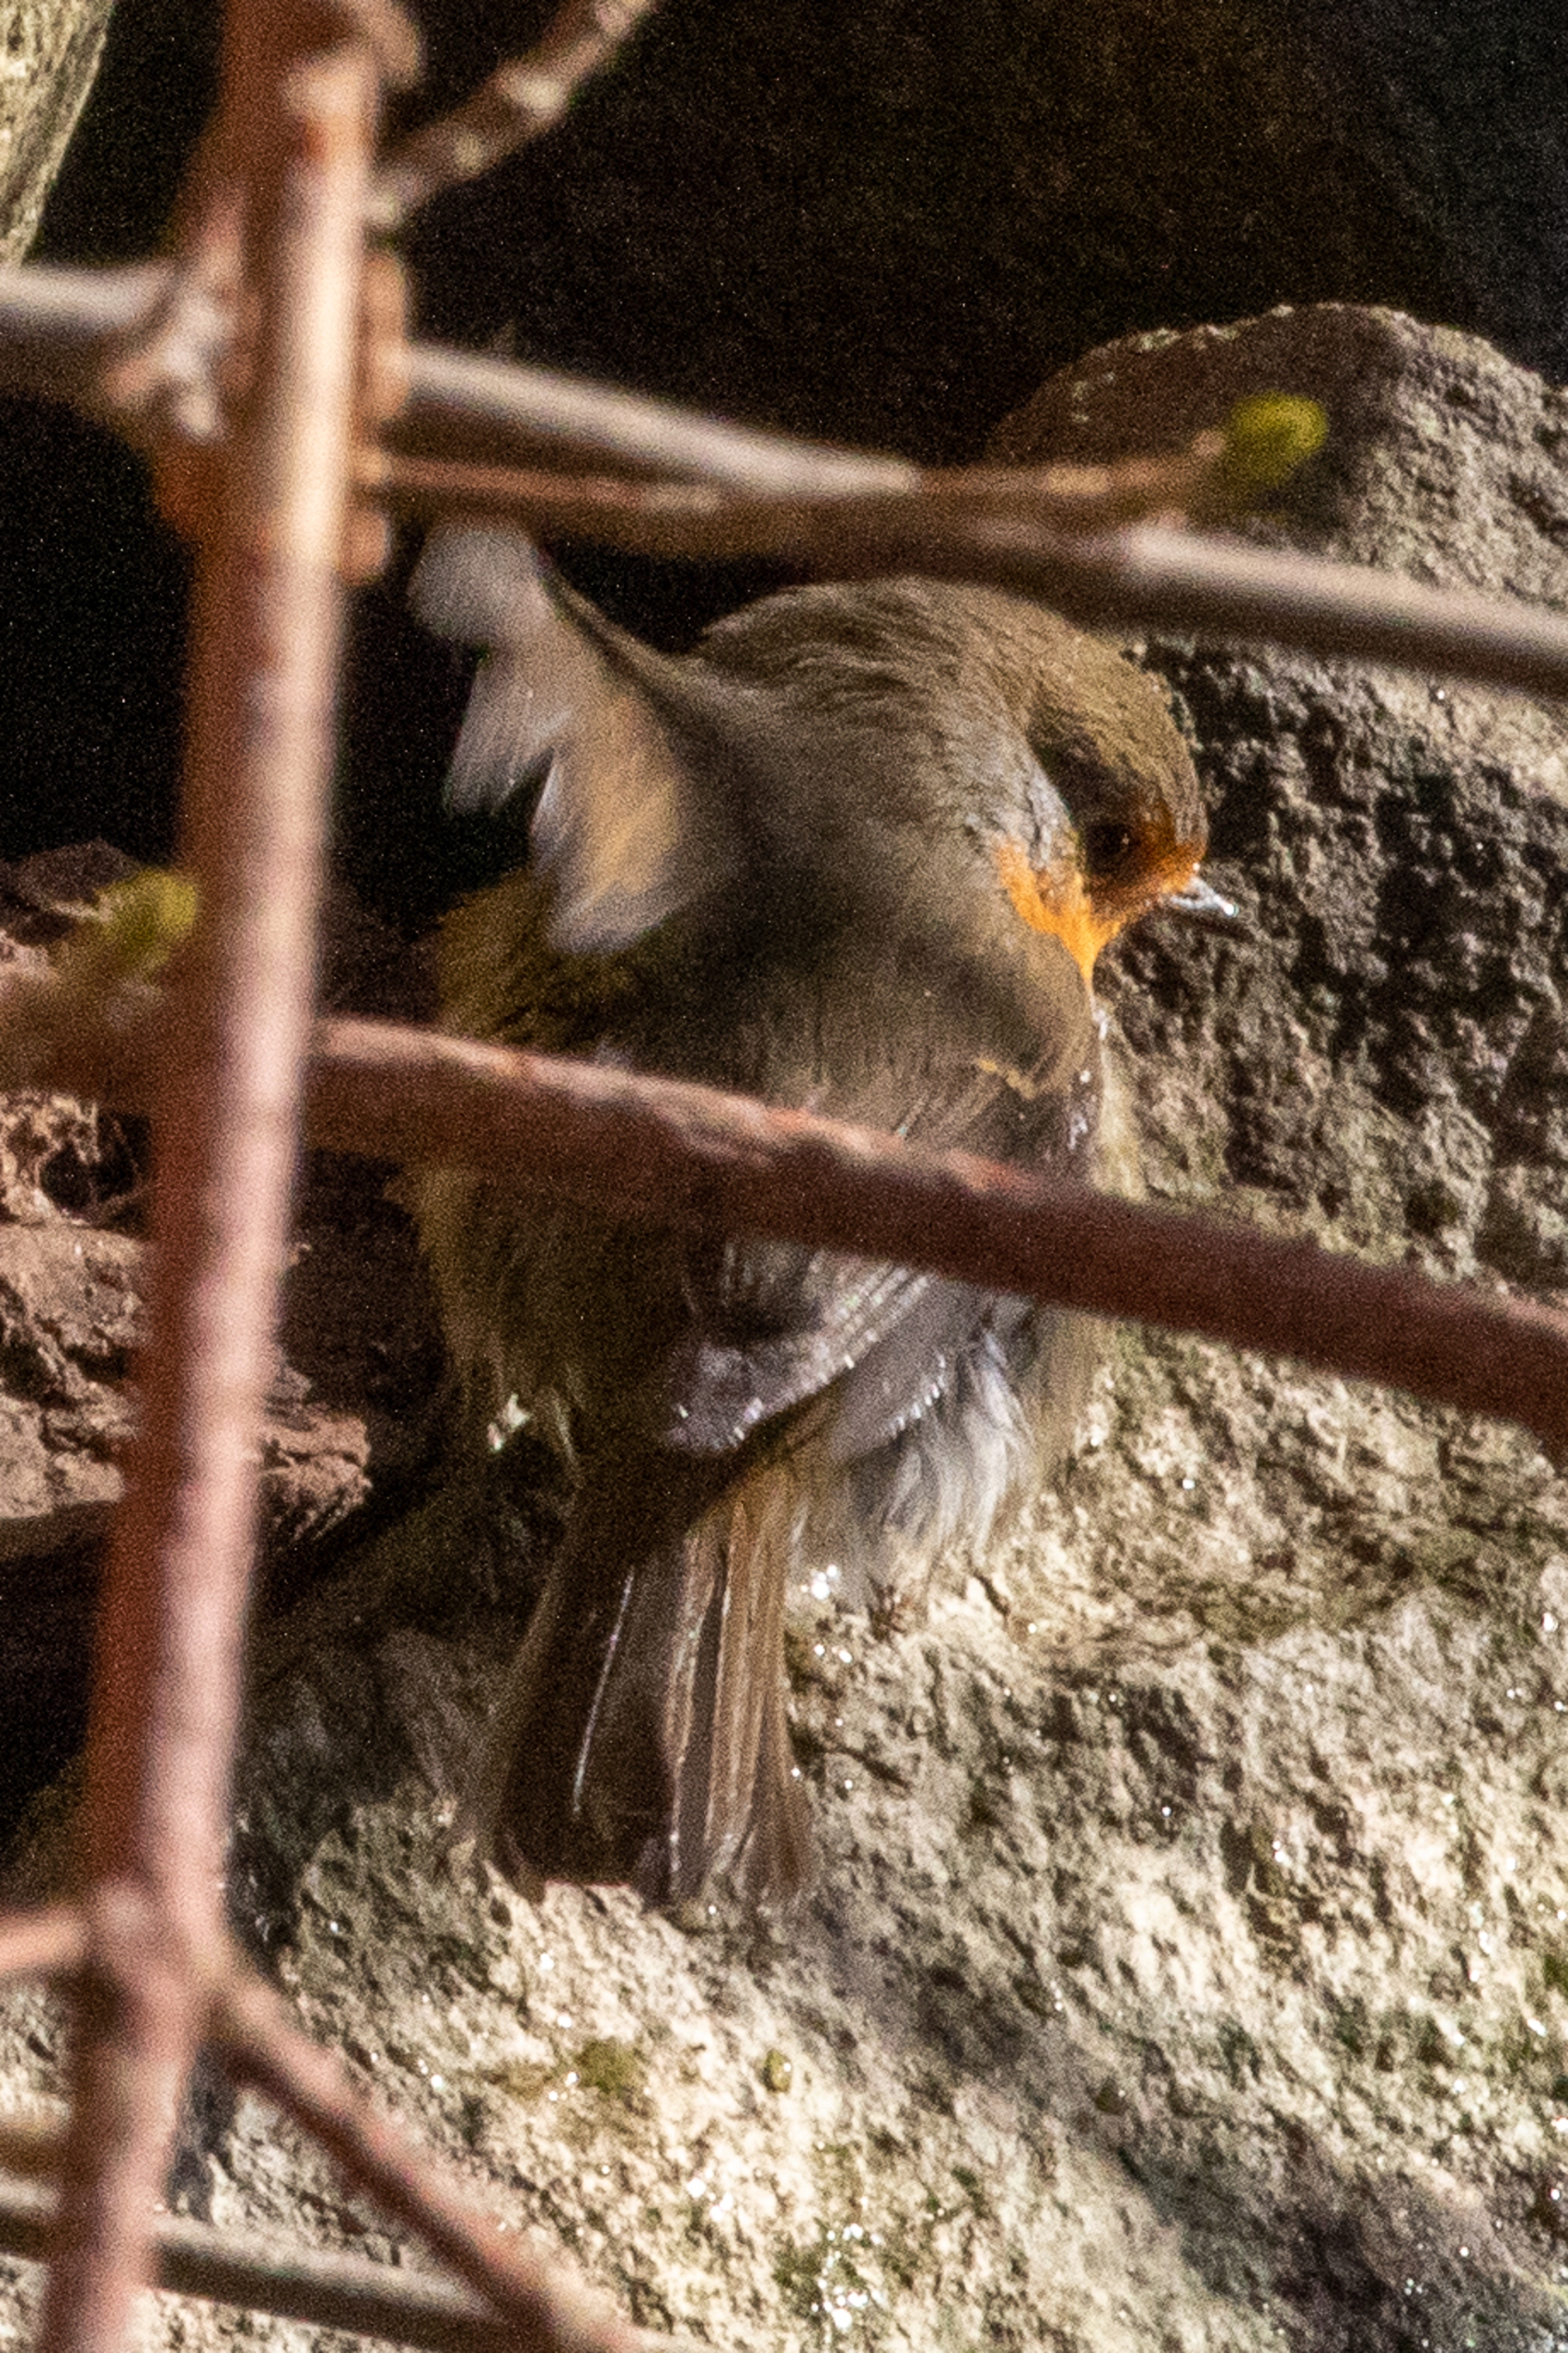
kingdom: Animalia
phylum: Chordata
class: Aves
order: Passeriformes
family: Muscicapidae
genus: Erithacus
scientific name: Erithacus rubecula
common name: Rødhals/rødkælk
